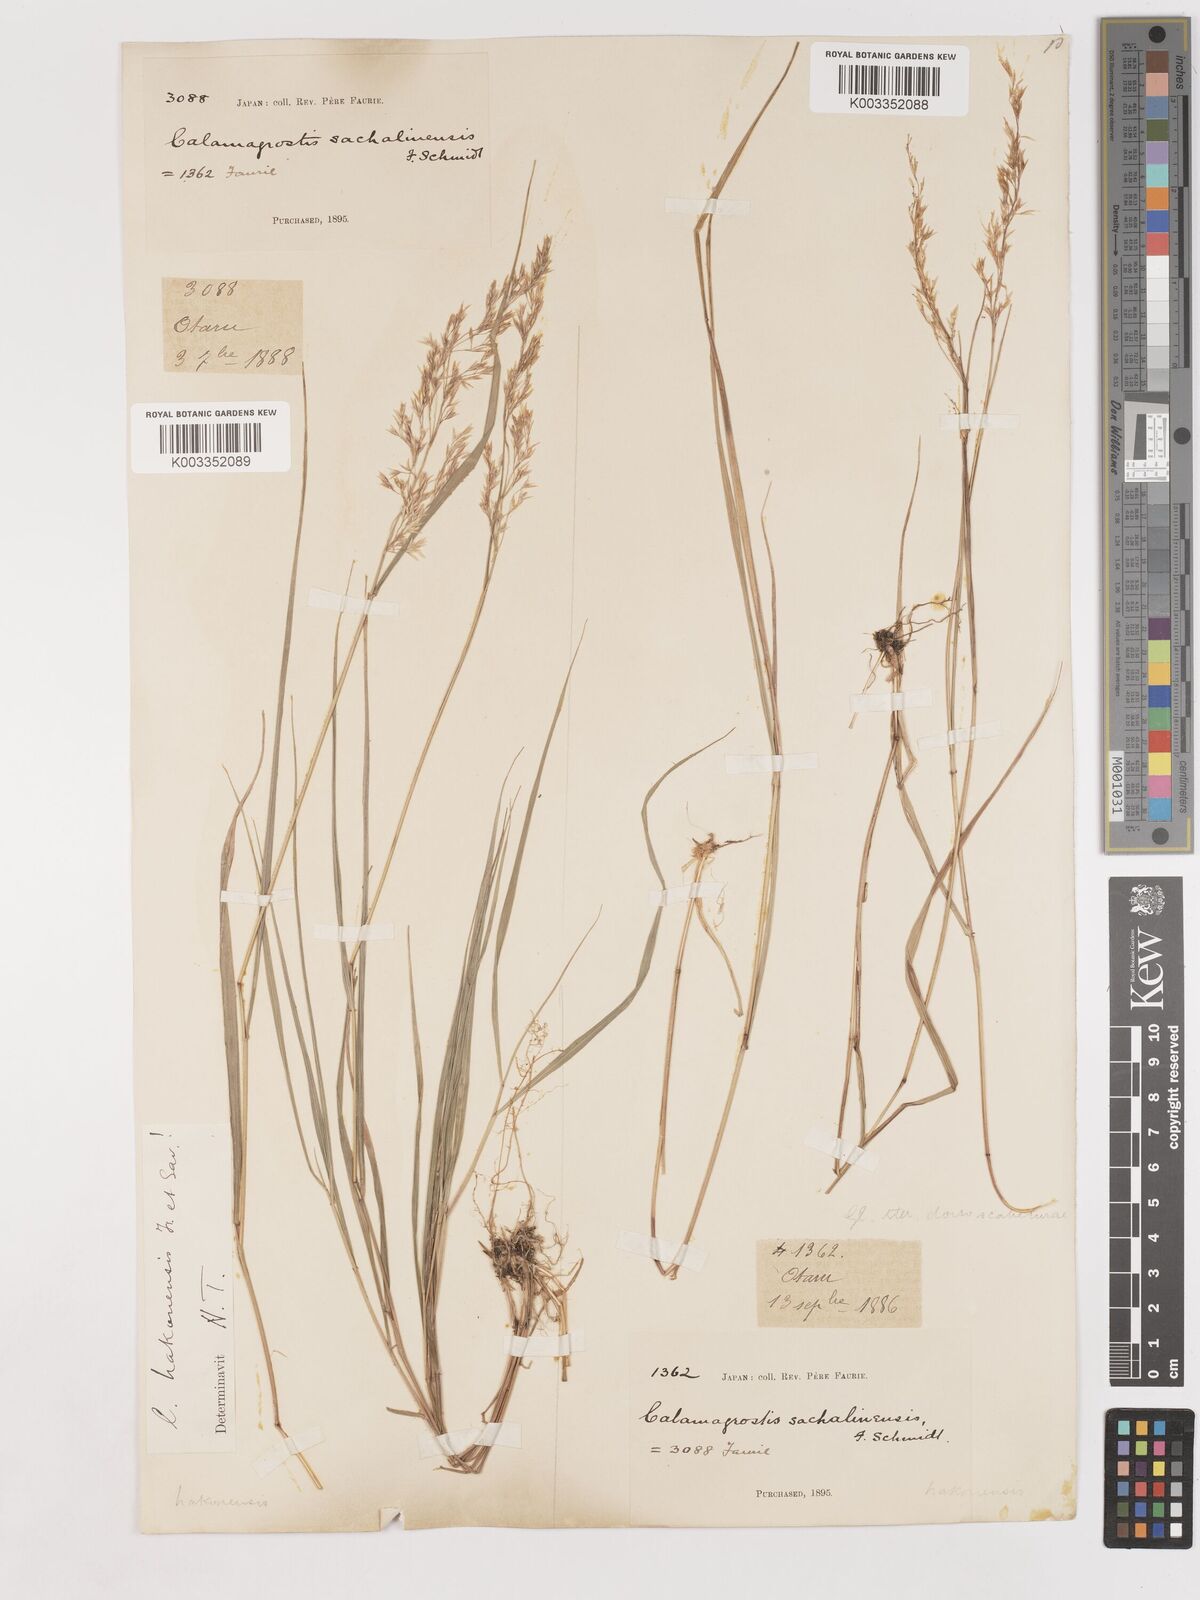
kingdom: Plantae
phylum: Tracheophyta
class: Liliopsida
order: Poales
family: Poaceae
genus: Calamagrostis
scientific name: Calamagrostis hakonensis
